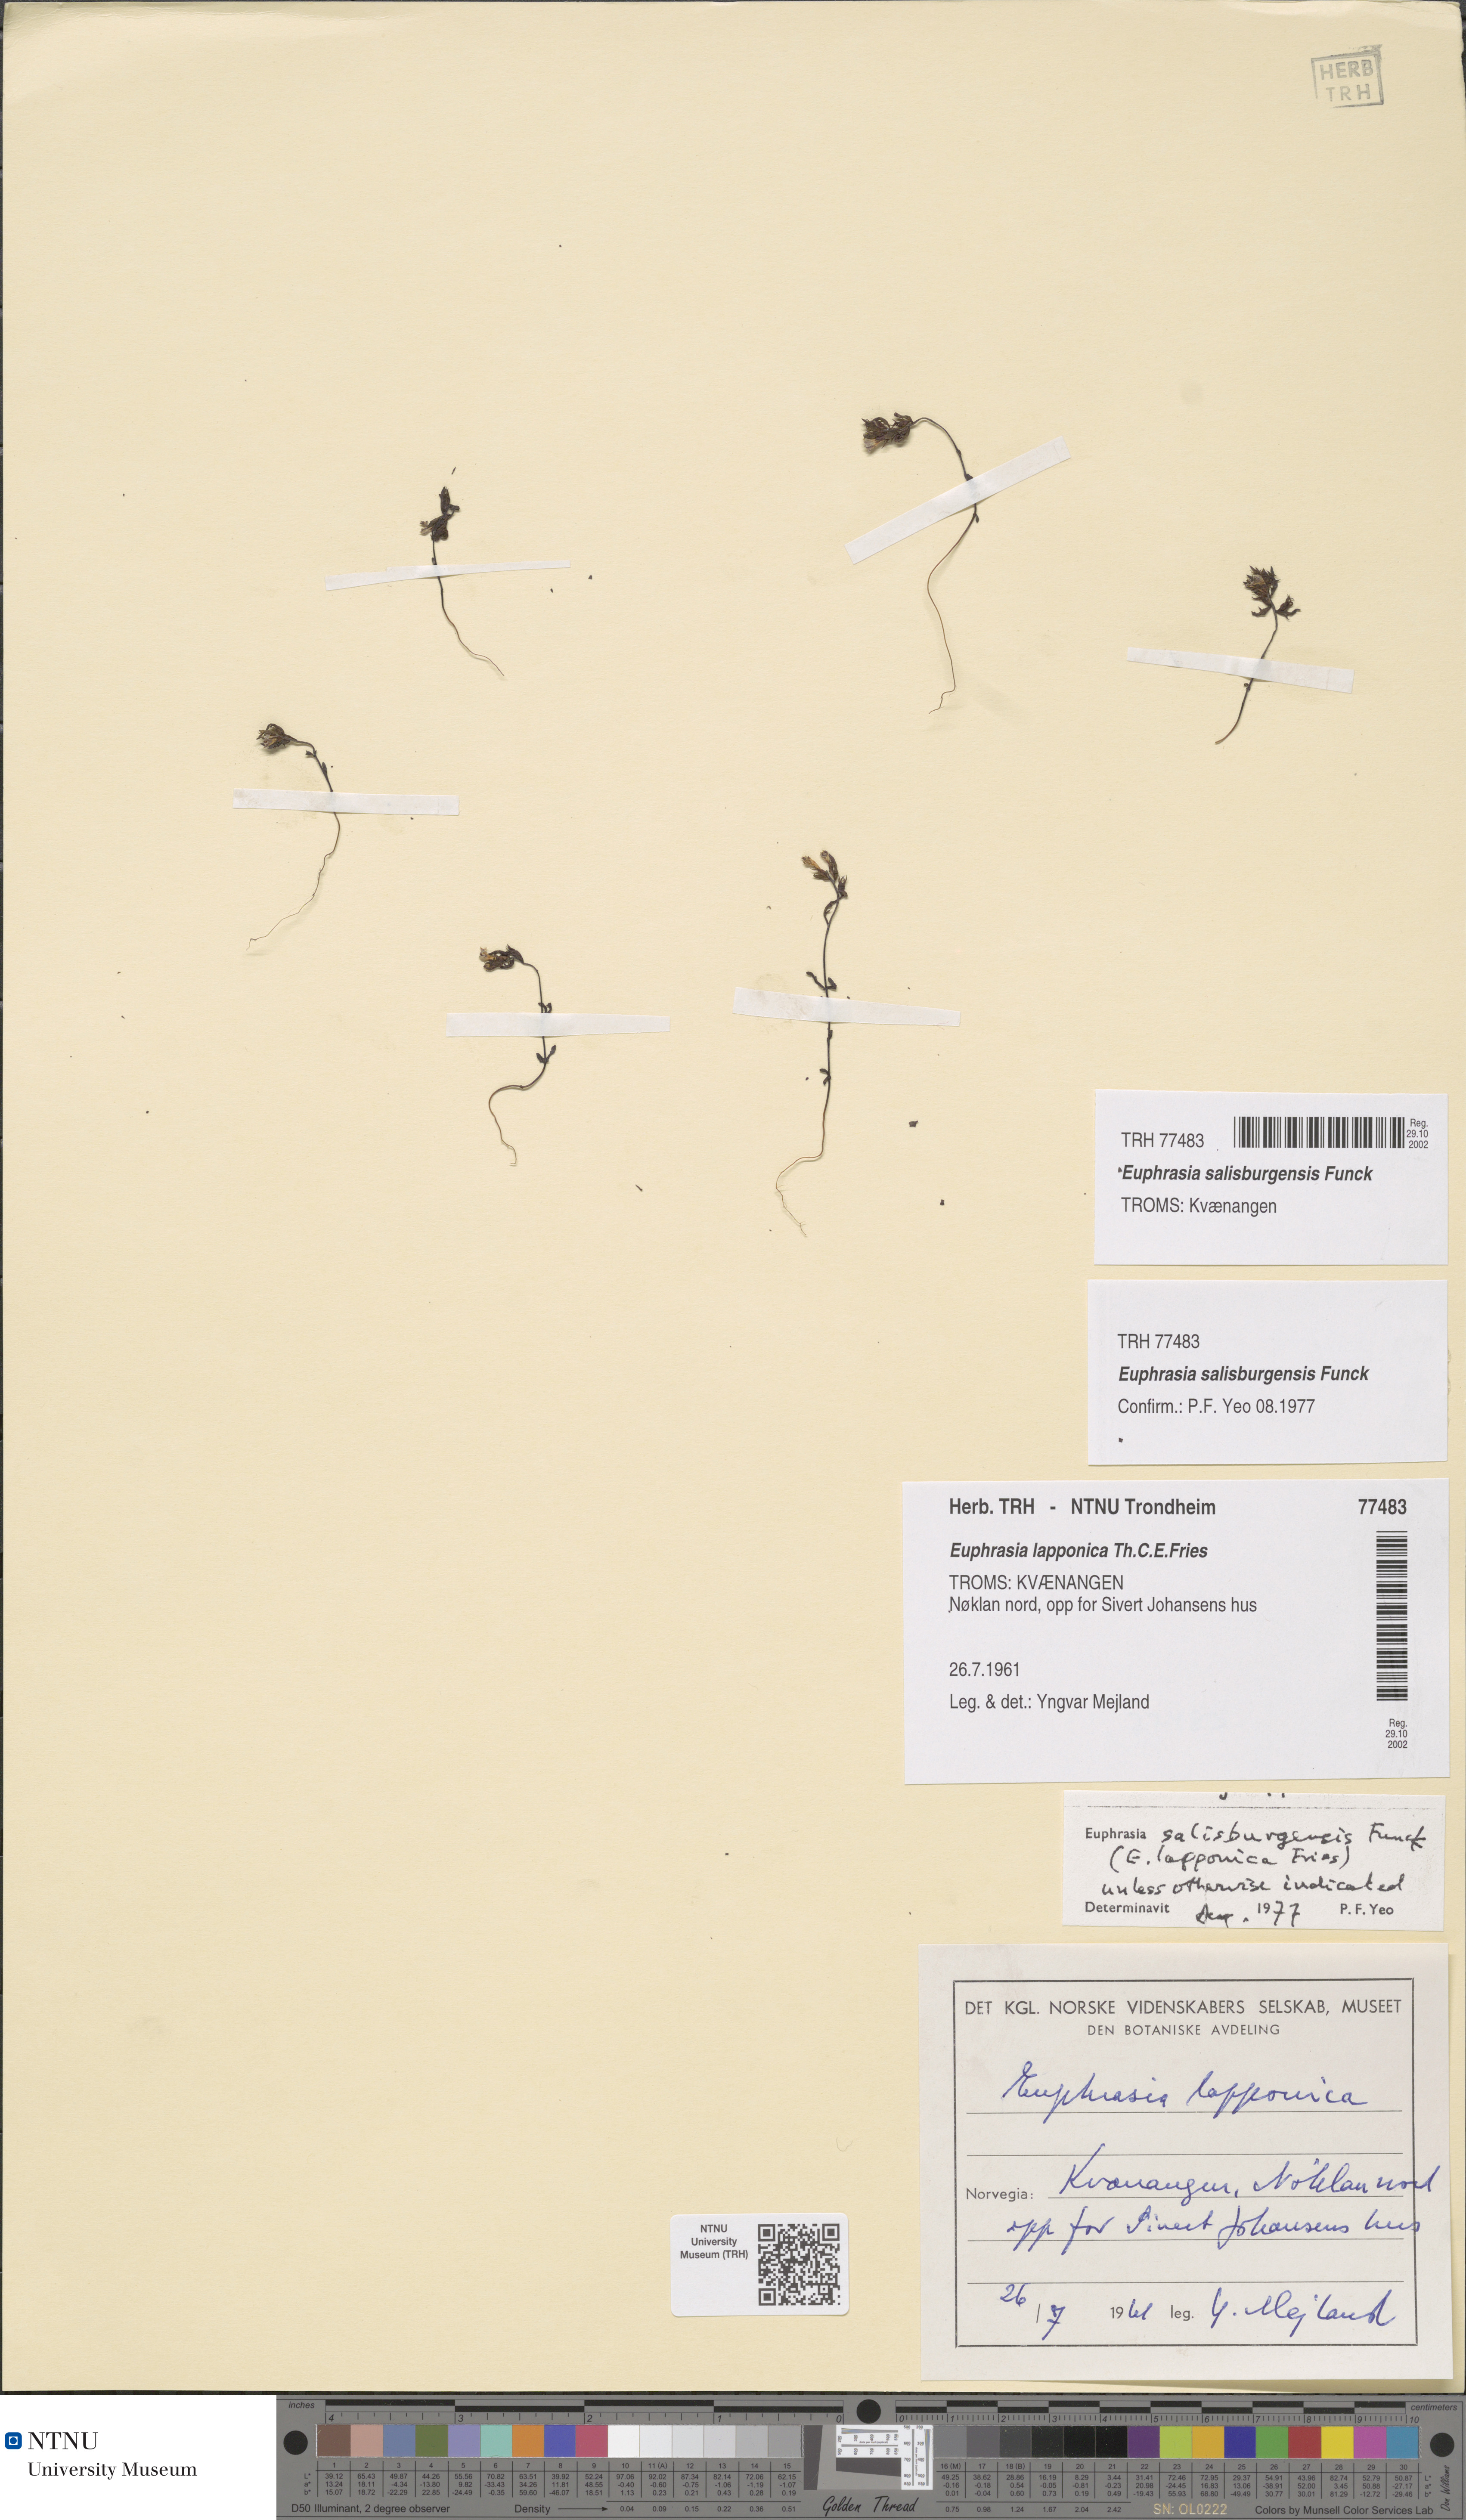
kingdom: Plantae
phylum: Tracheophyta
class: Magnoliopsida
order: Lamiales
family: Orobanchaceae
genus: Euphrasia
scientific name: Euphrasia salisburgensis
